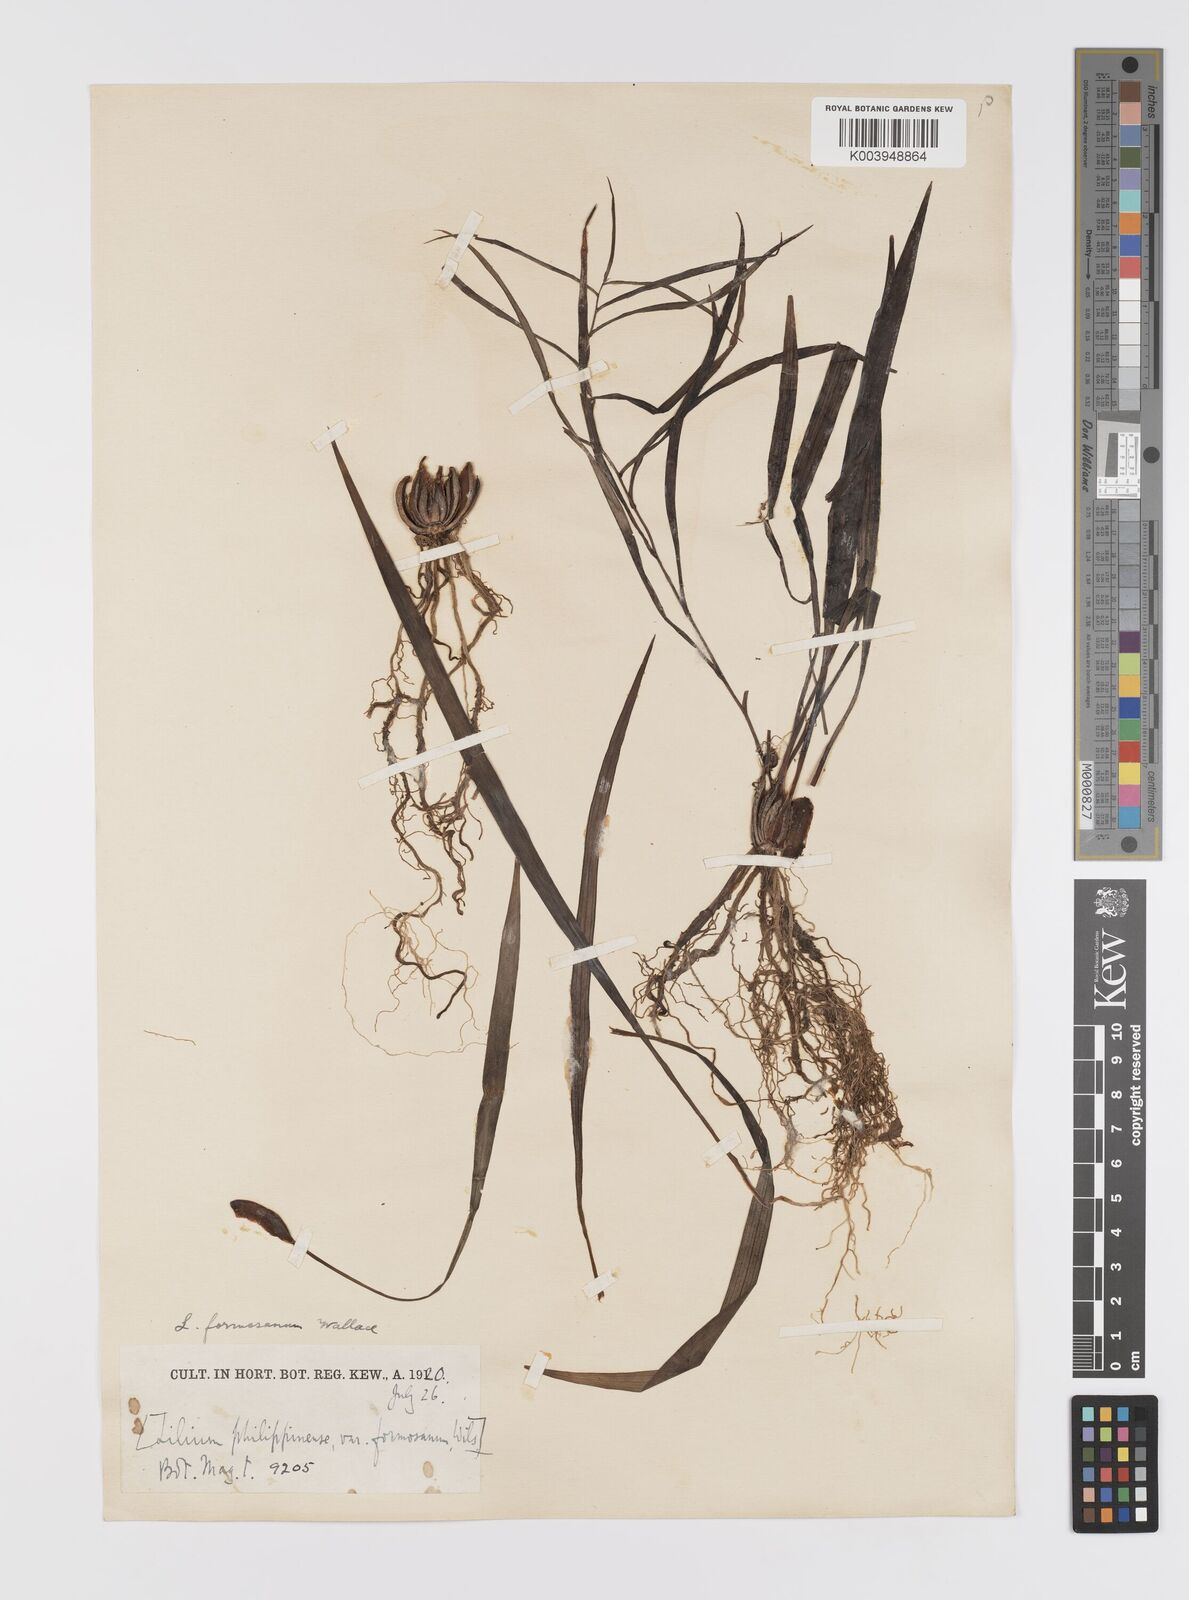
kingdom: Plantae
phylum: Tracheophyta
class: Liliopsida
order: Liliales
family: Liliaceae
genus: Lilium
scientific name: Lilium formosanum
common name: Formosa lily
